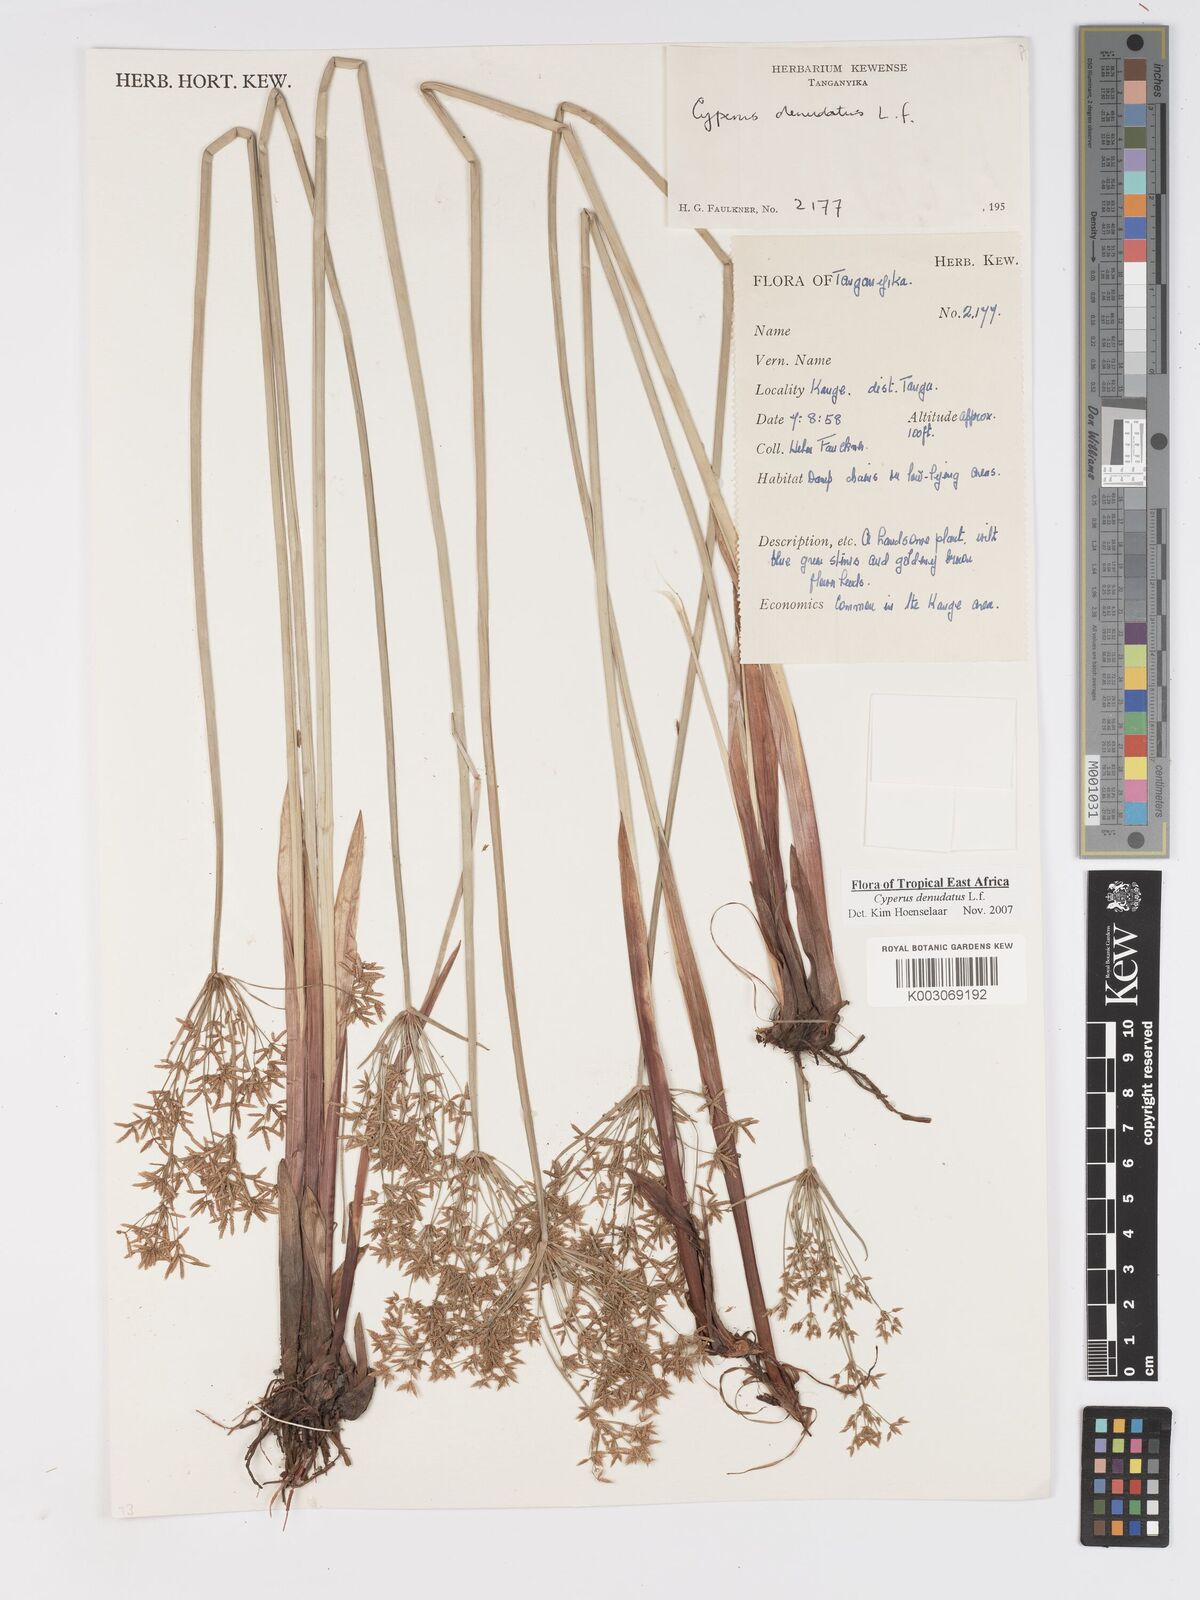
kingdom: Plantae
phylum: Tracheophyta
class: Liliopsida
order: Poales
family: Cyperaceae
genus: Cyperus
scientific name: Cyperus denudatus
